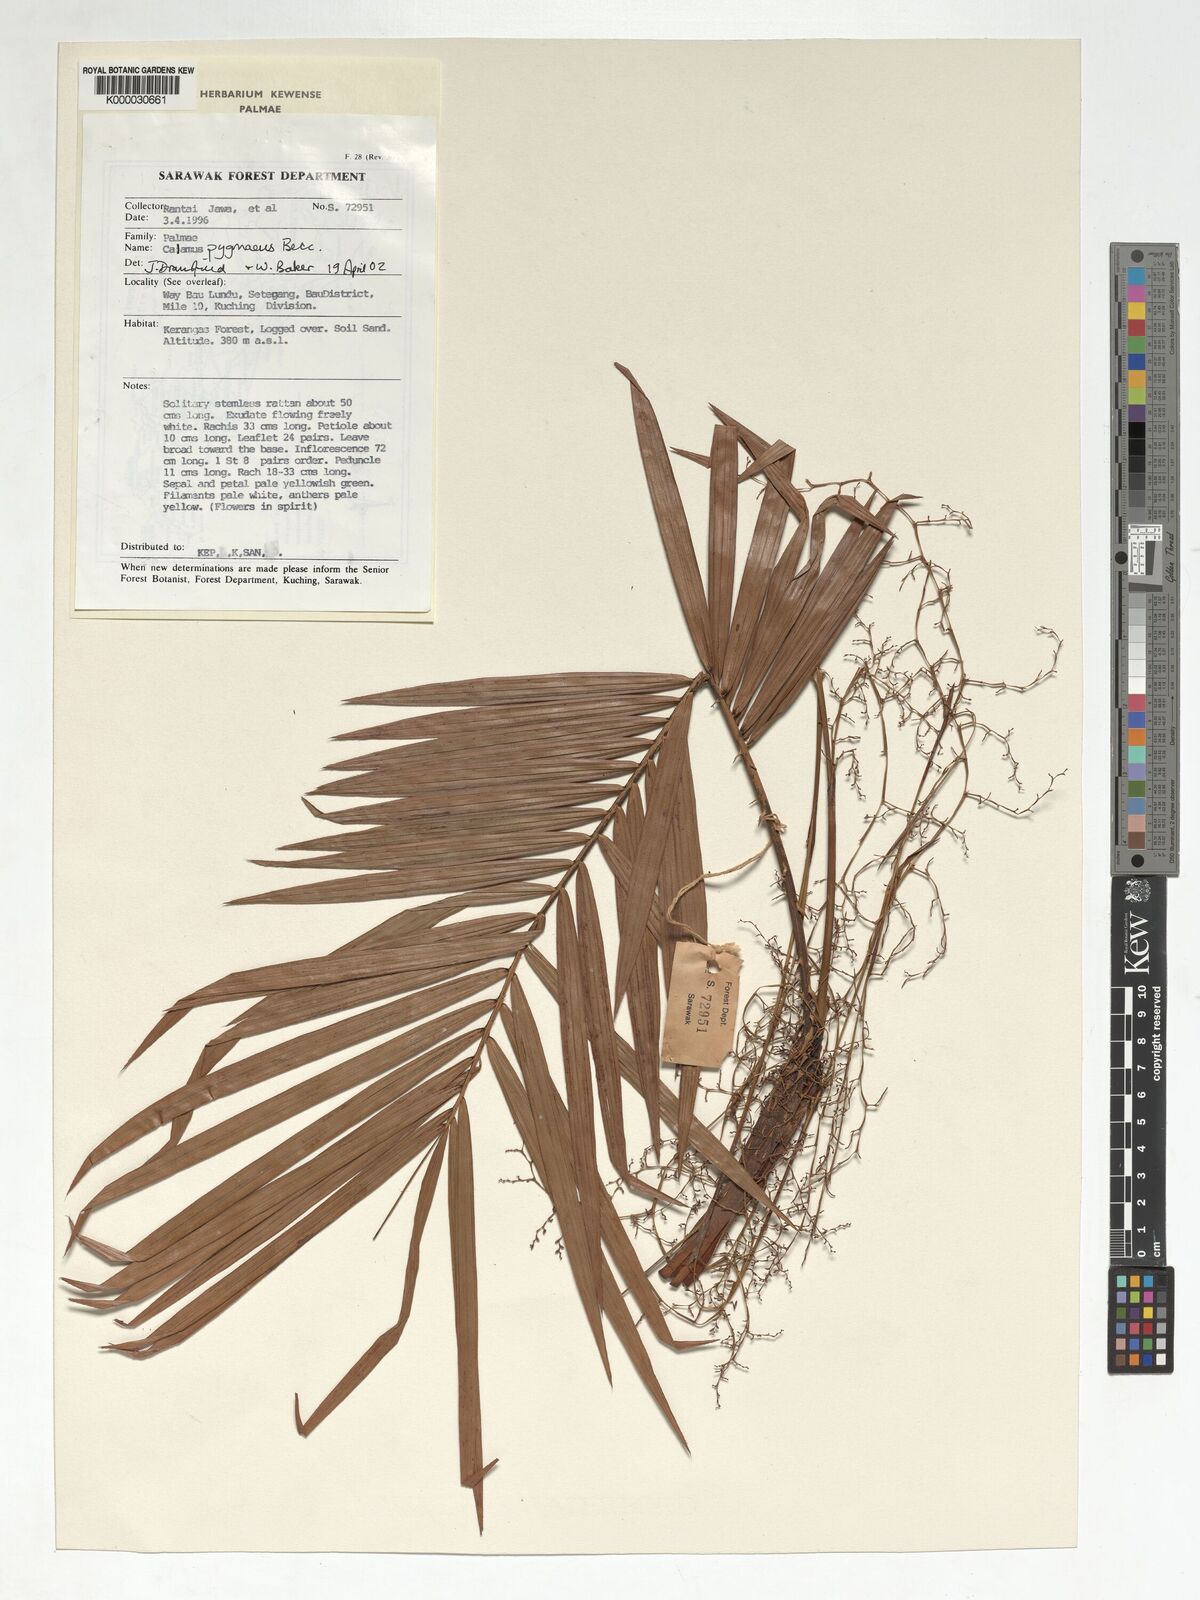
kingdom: Plantae
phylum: Tracheophyta
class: Liliopsida
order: Arecales
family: Arecaceae
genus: Calamus
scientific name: Calamus pygmaeus
